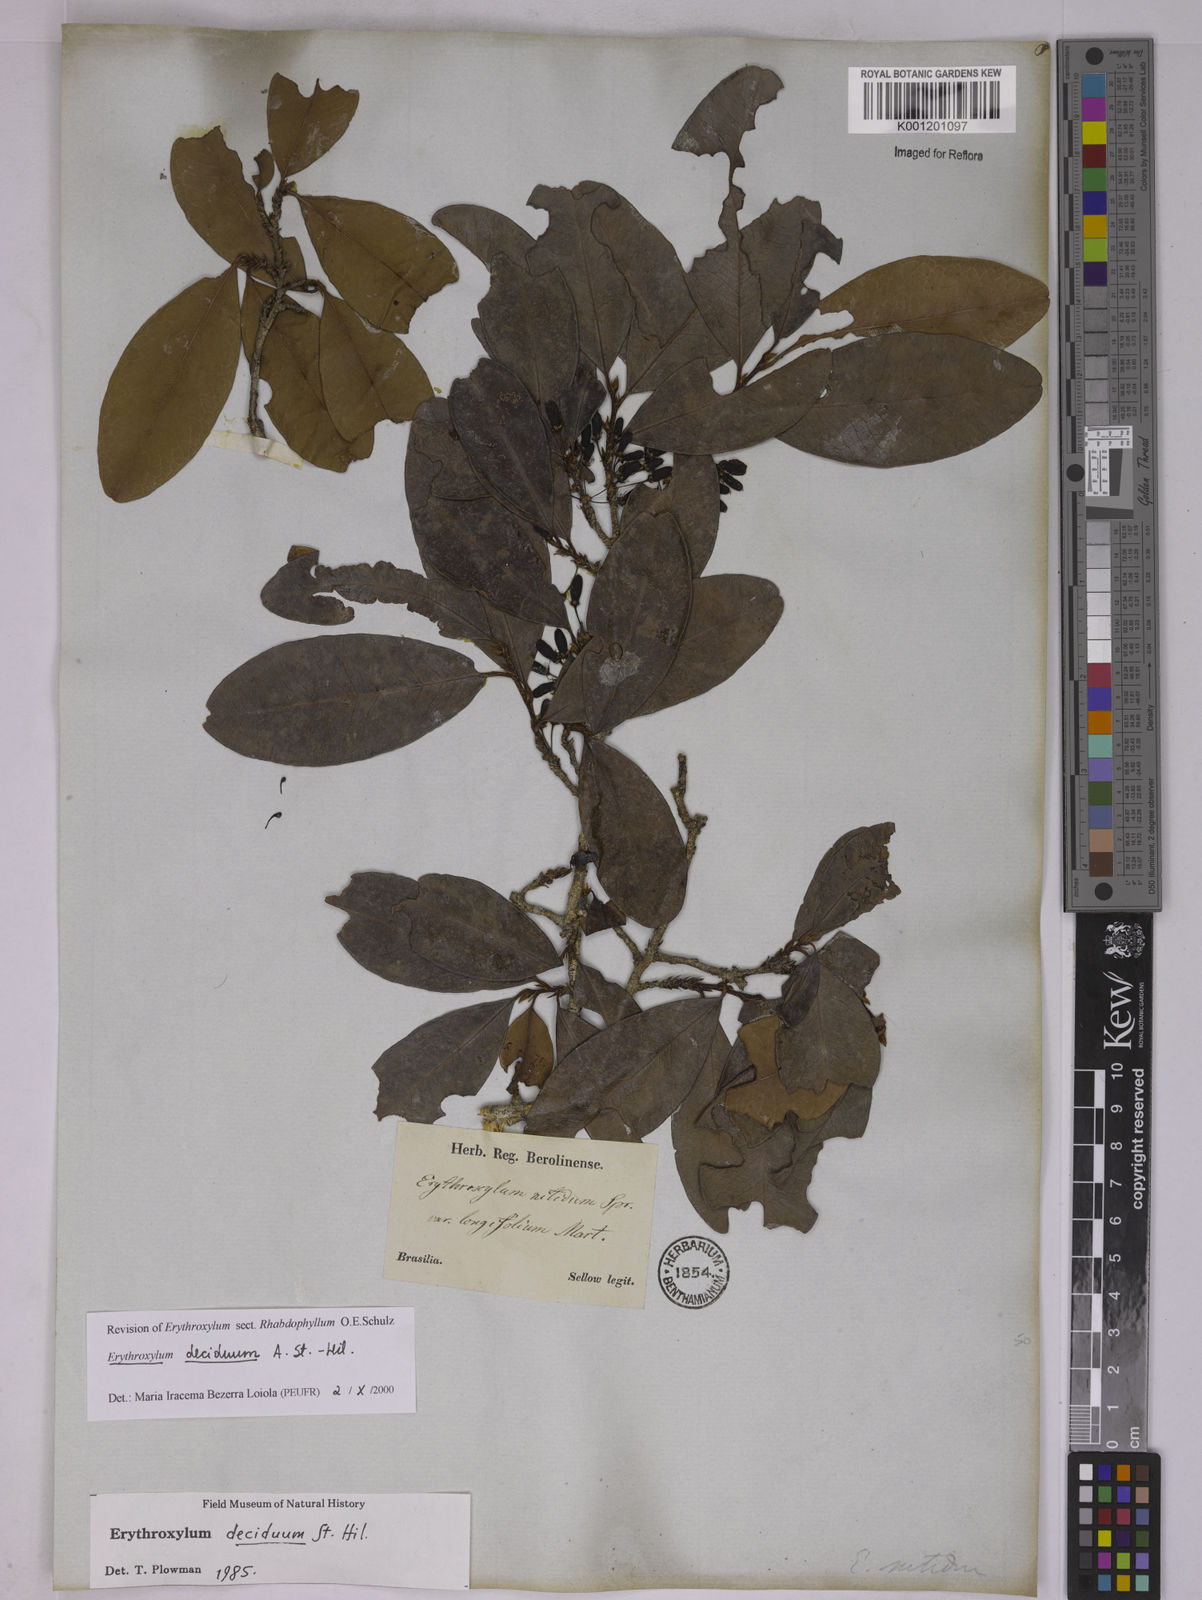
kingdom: Plantae
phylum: Tracheophyta
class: Magnoliopsida
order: Malpighiales
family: Erythroxylaceae
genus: Erythroxylum
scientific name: Erythroxylum deciduum
